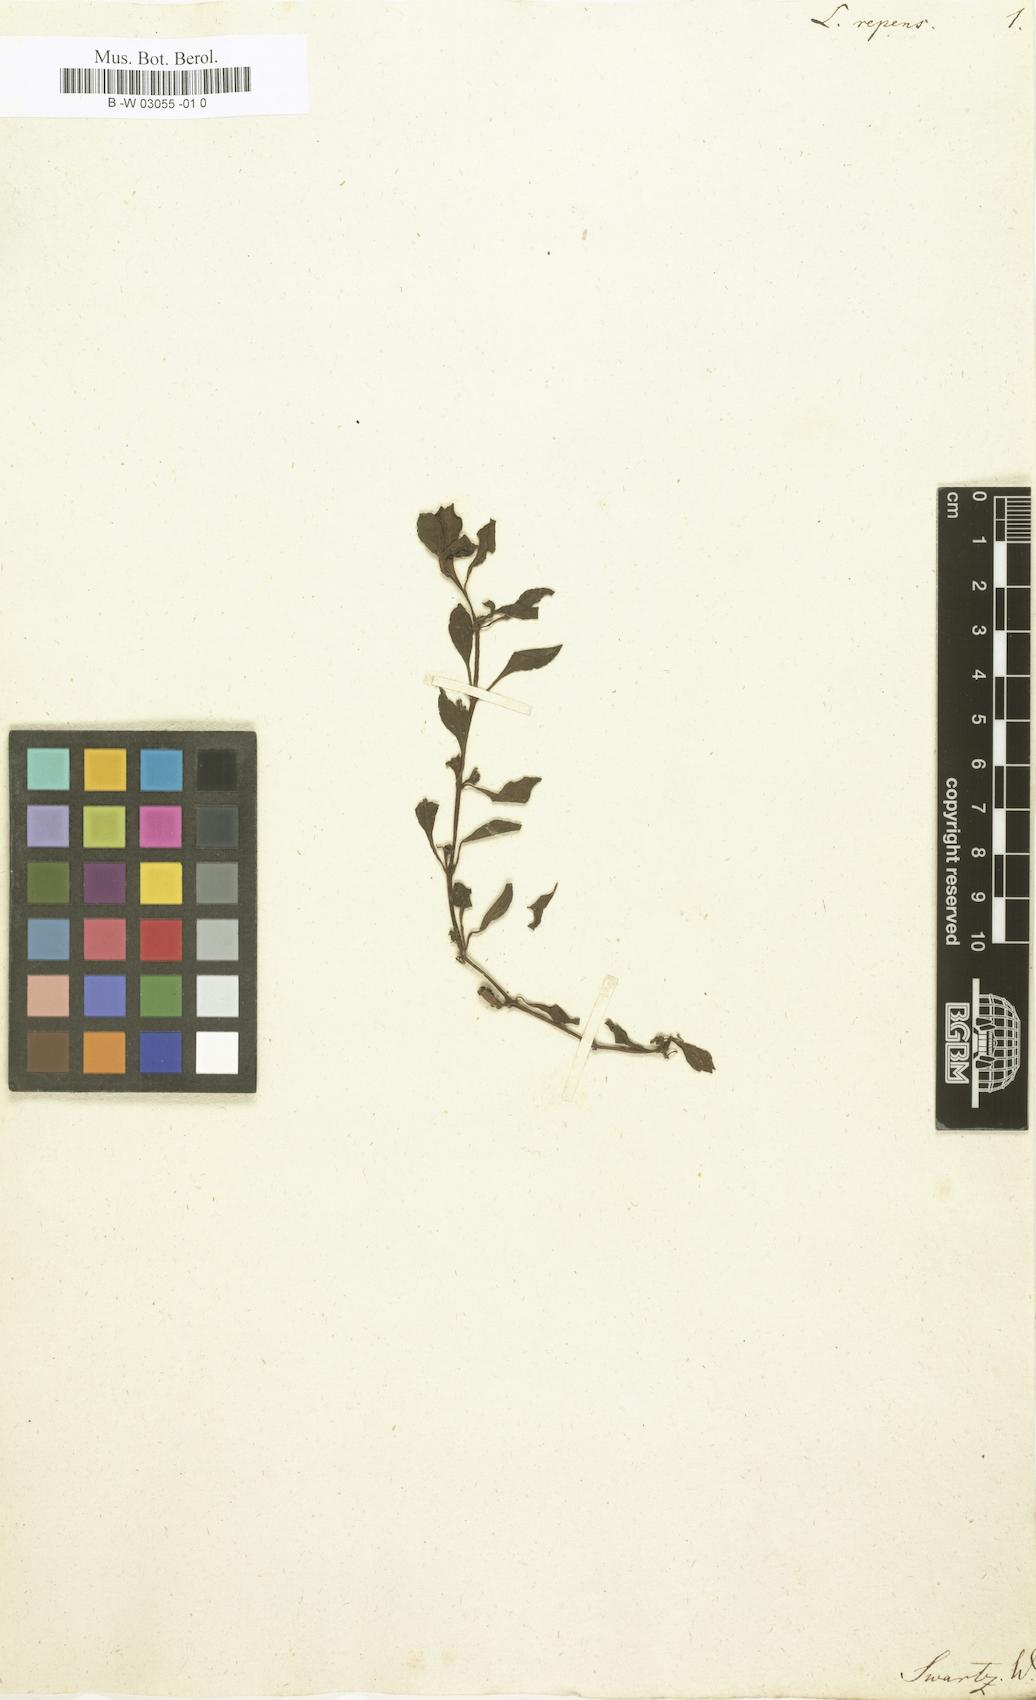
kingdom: Plantae
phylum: Tracheophyta
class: Magnoliopsida
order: Myrtales
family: Onagraceae
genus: Ludwigia
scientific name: Ludwigia repens
